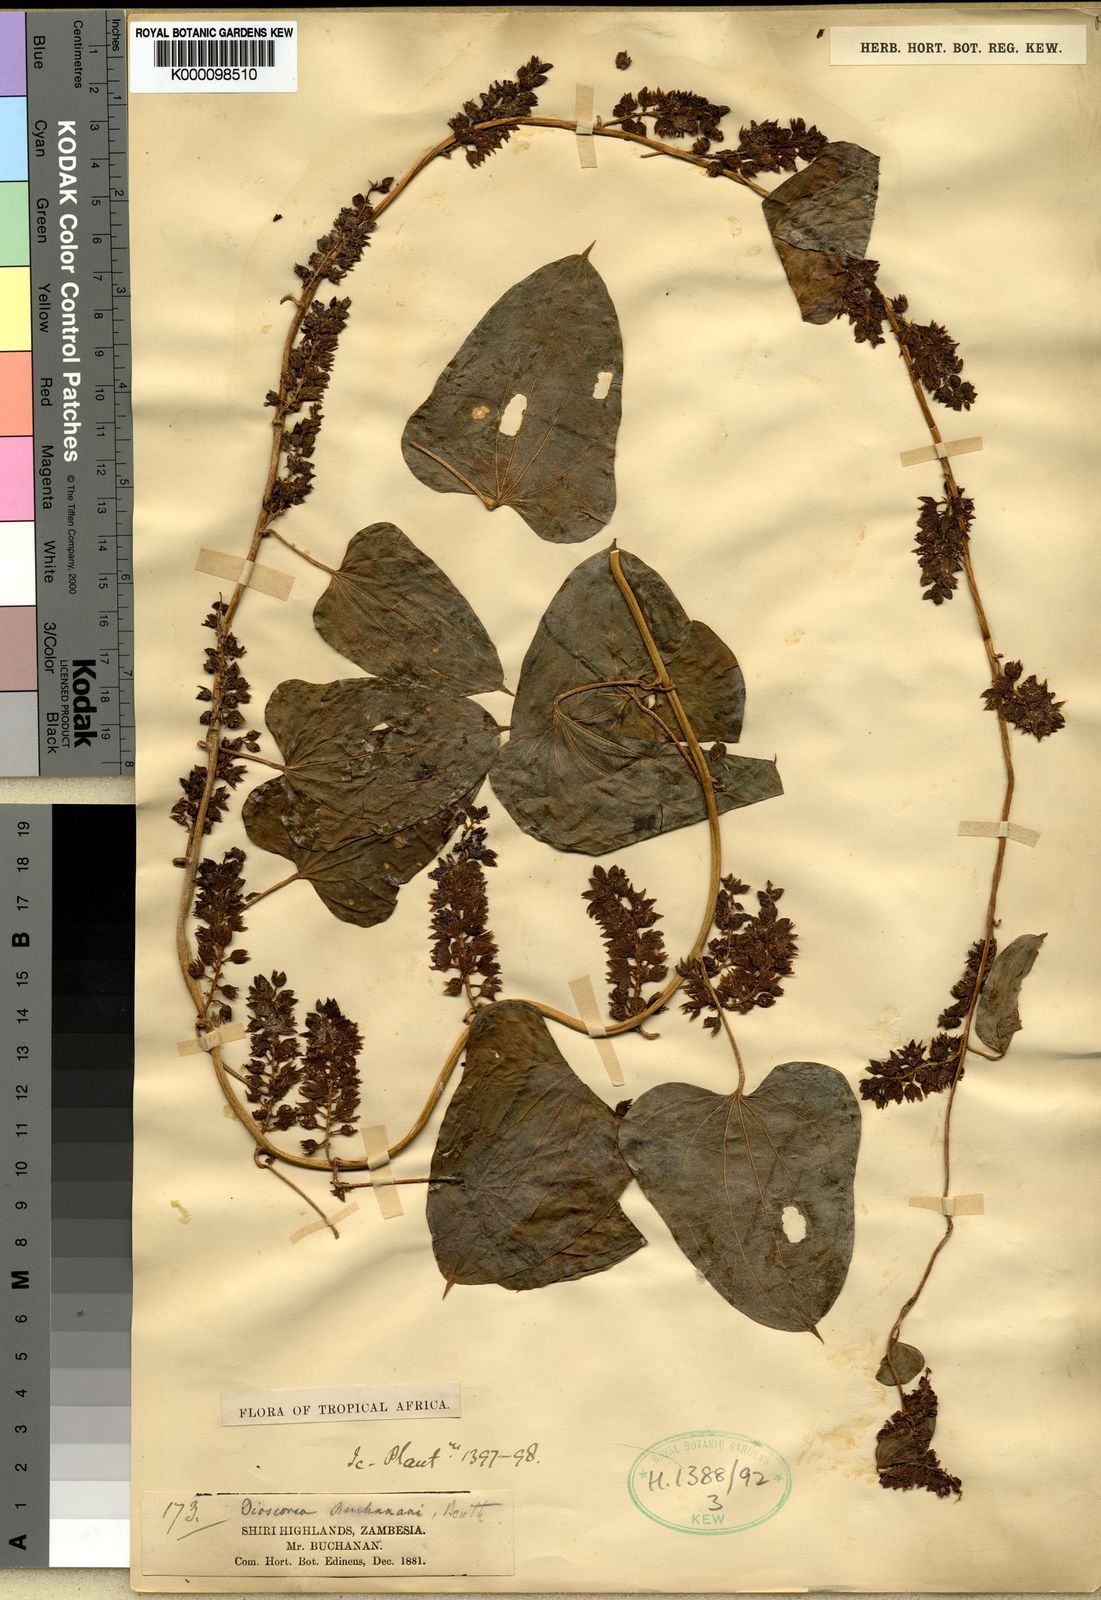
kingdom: Plantae
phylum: Tracheophyta
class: Liliopsida
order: Dioscoreales
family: Dioscoreaceae
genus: Dioscorea
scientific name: Dioscorea buchananii
